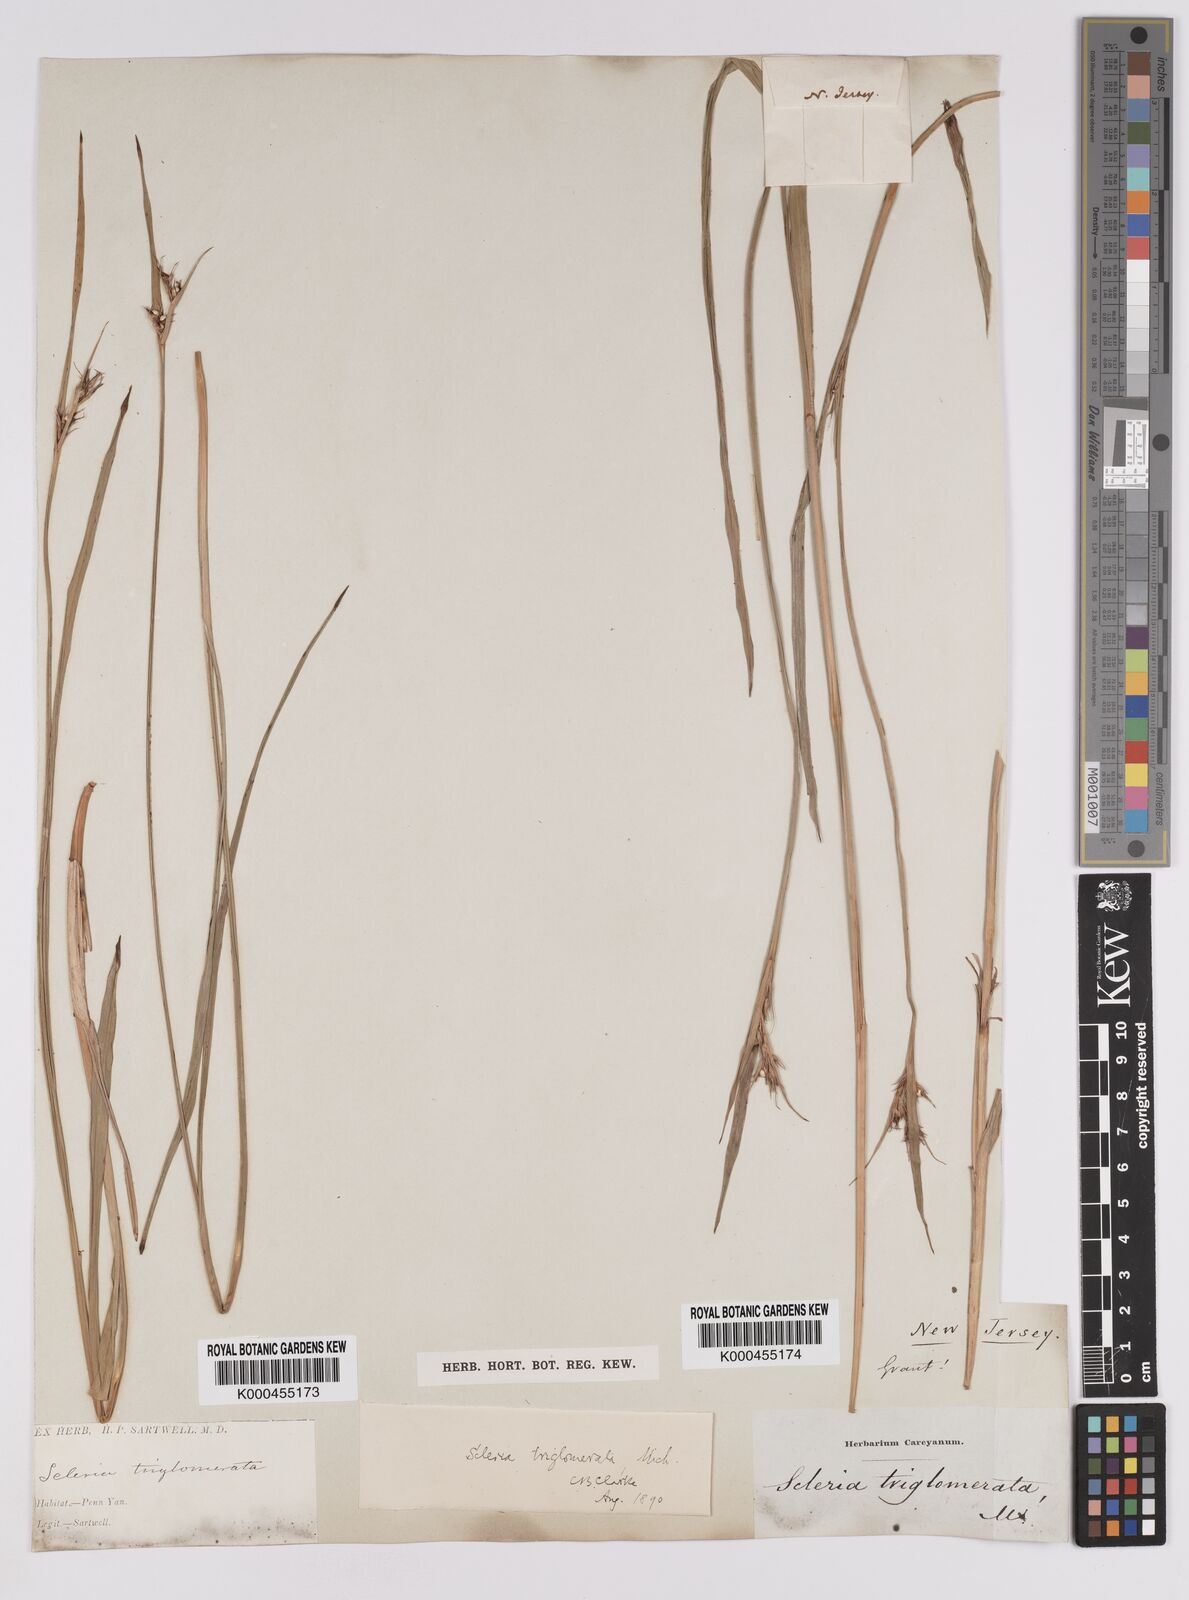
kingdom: Plantae
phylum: Tracheophyta
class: Liliopsida
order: Poales
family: Cyperaceae
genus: Scleria
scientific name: Scleria triglomerata
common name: Whip nutrush
